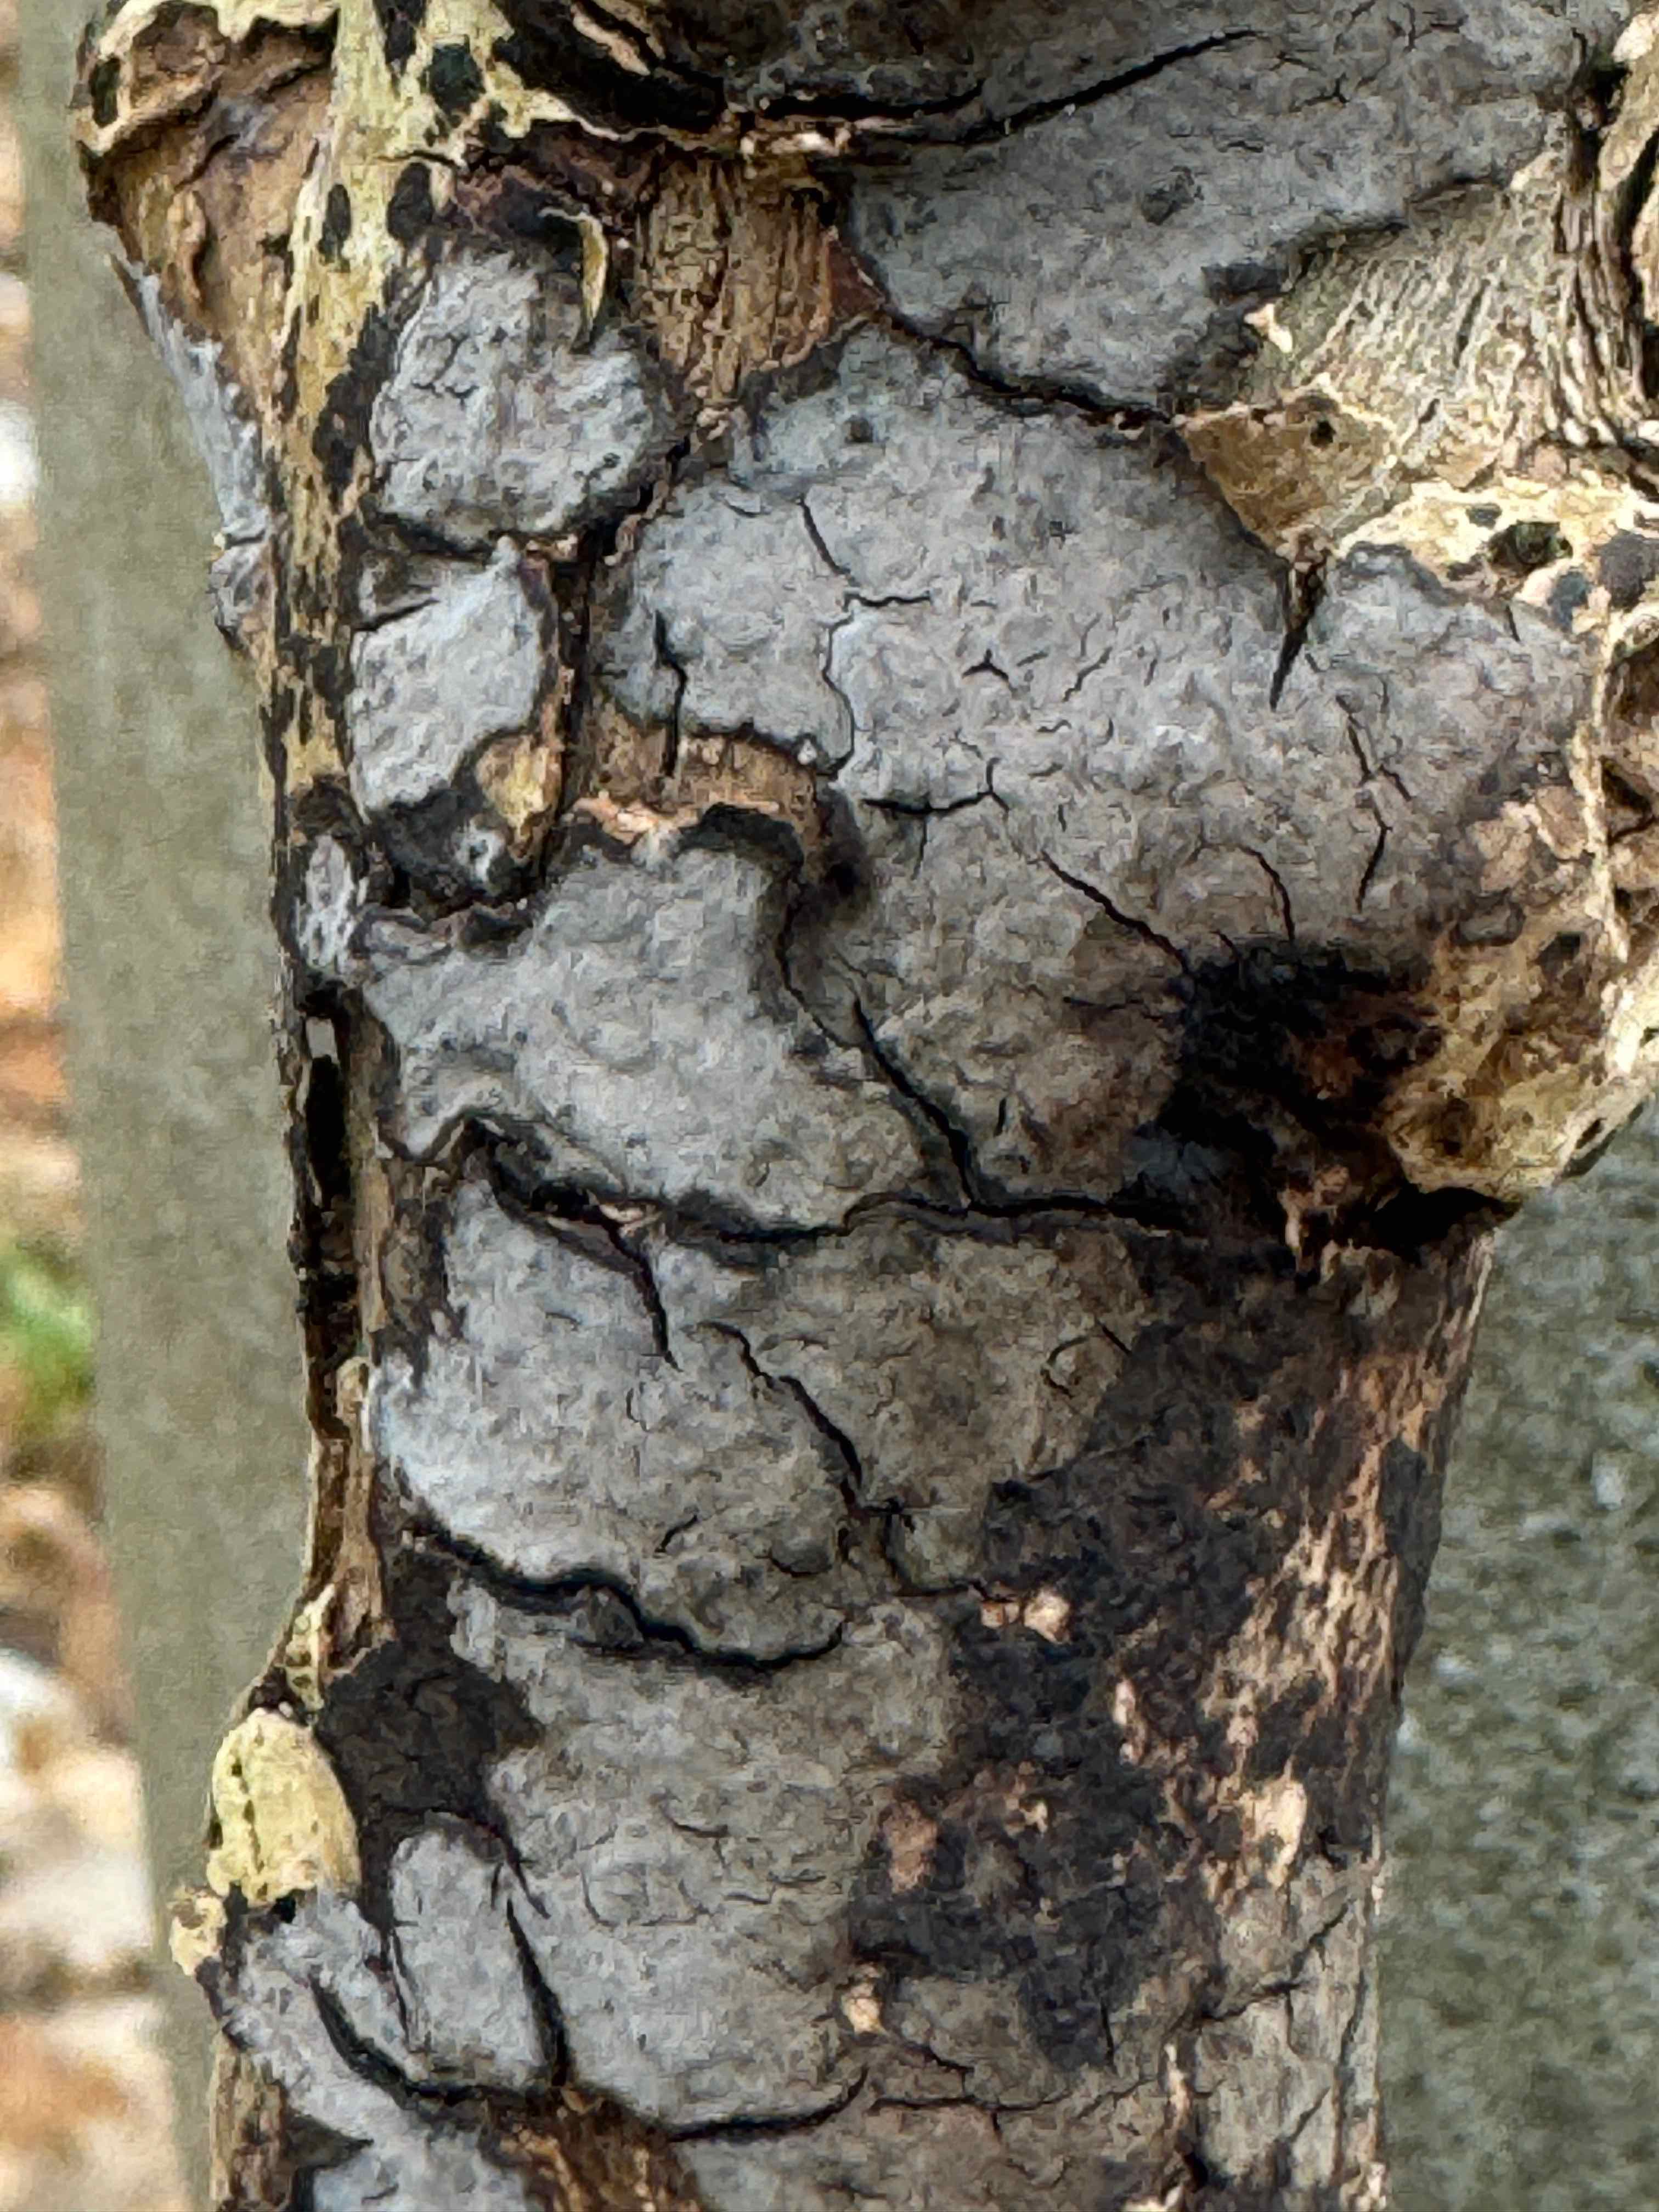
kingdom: Fungi
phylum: Basidiomycota
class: Agaricomycetes
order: Russulales
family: Peniophoraceae
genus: Peniophora
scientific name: Peniophora limitata
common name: mørkrandet voksskind
